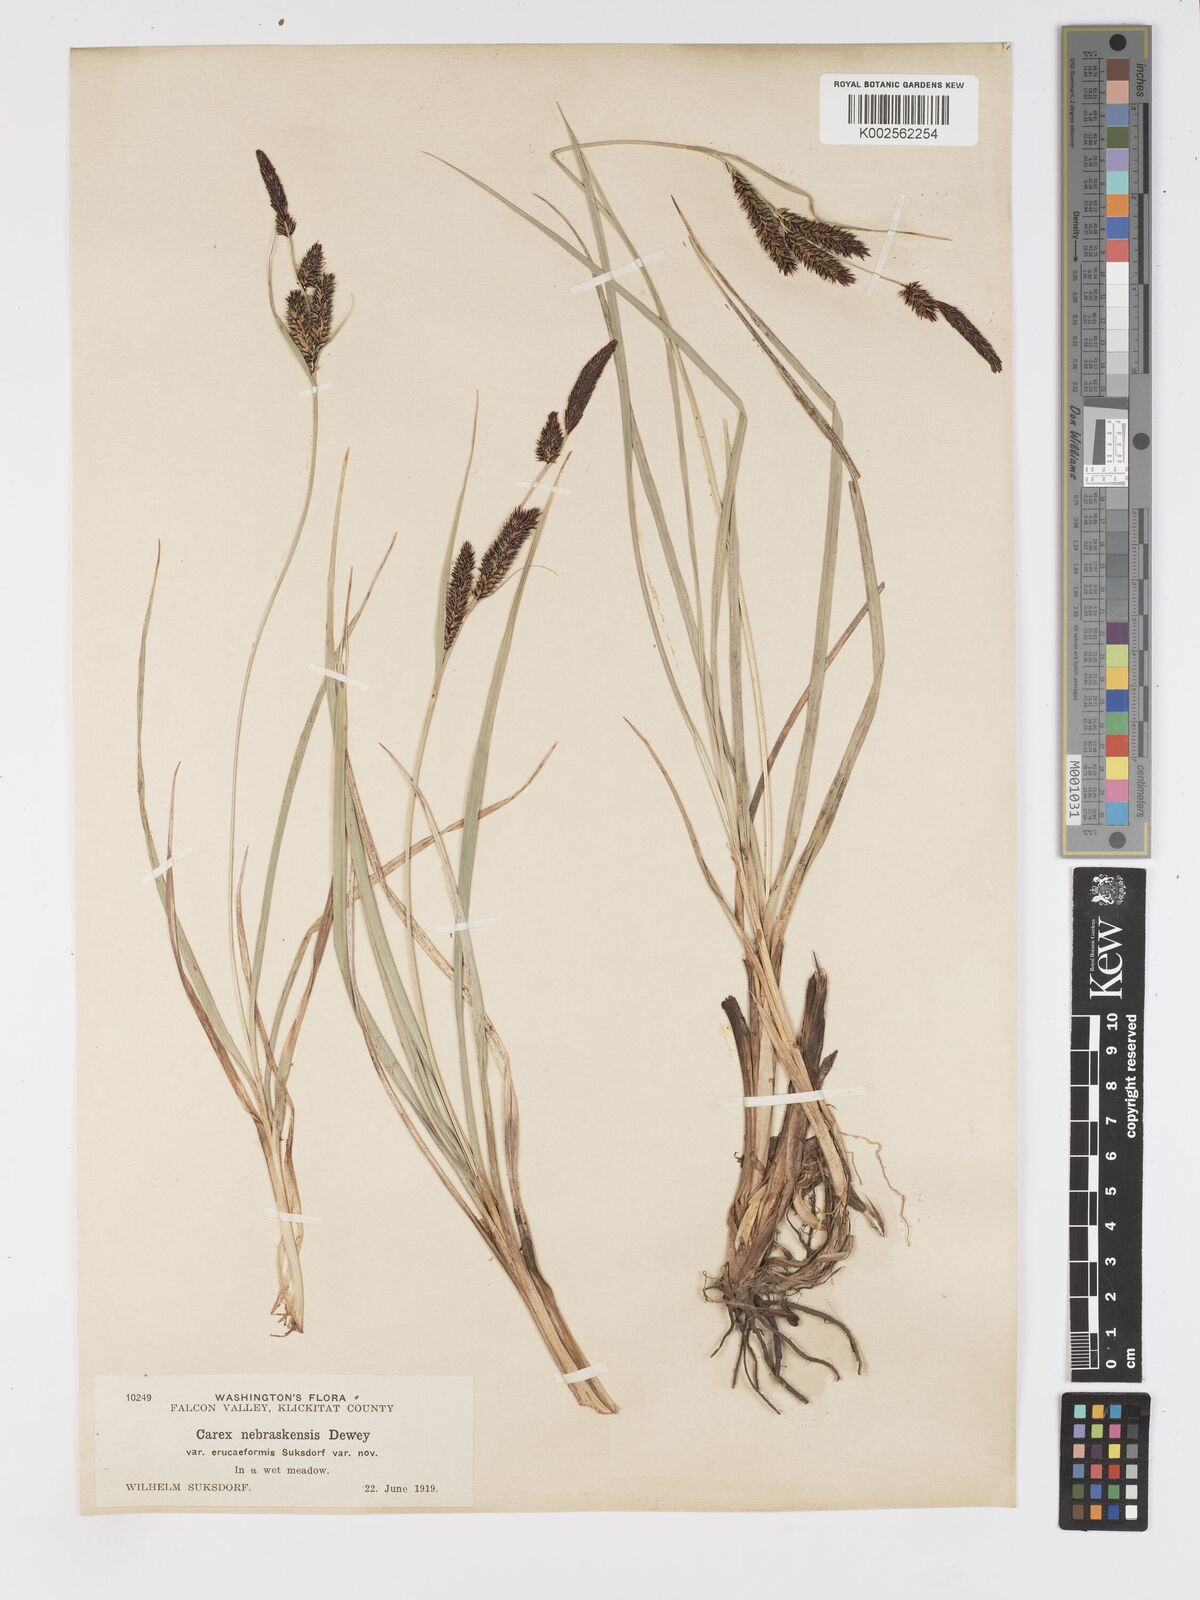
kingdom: Plantae
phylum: Tracheophyta
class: Liliopsida
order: Poales
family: Cyperaceae
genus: Carex
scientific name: Carex nebrascensis
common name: Nebraska sedge
